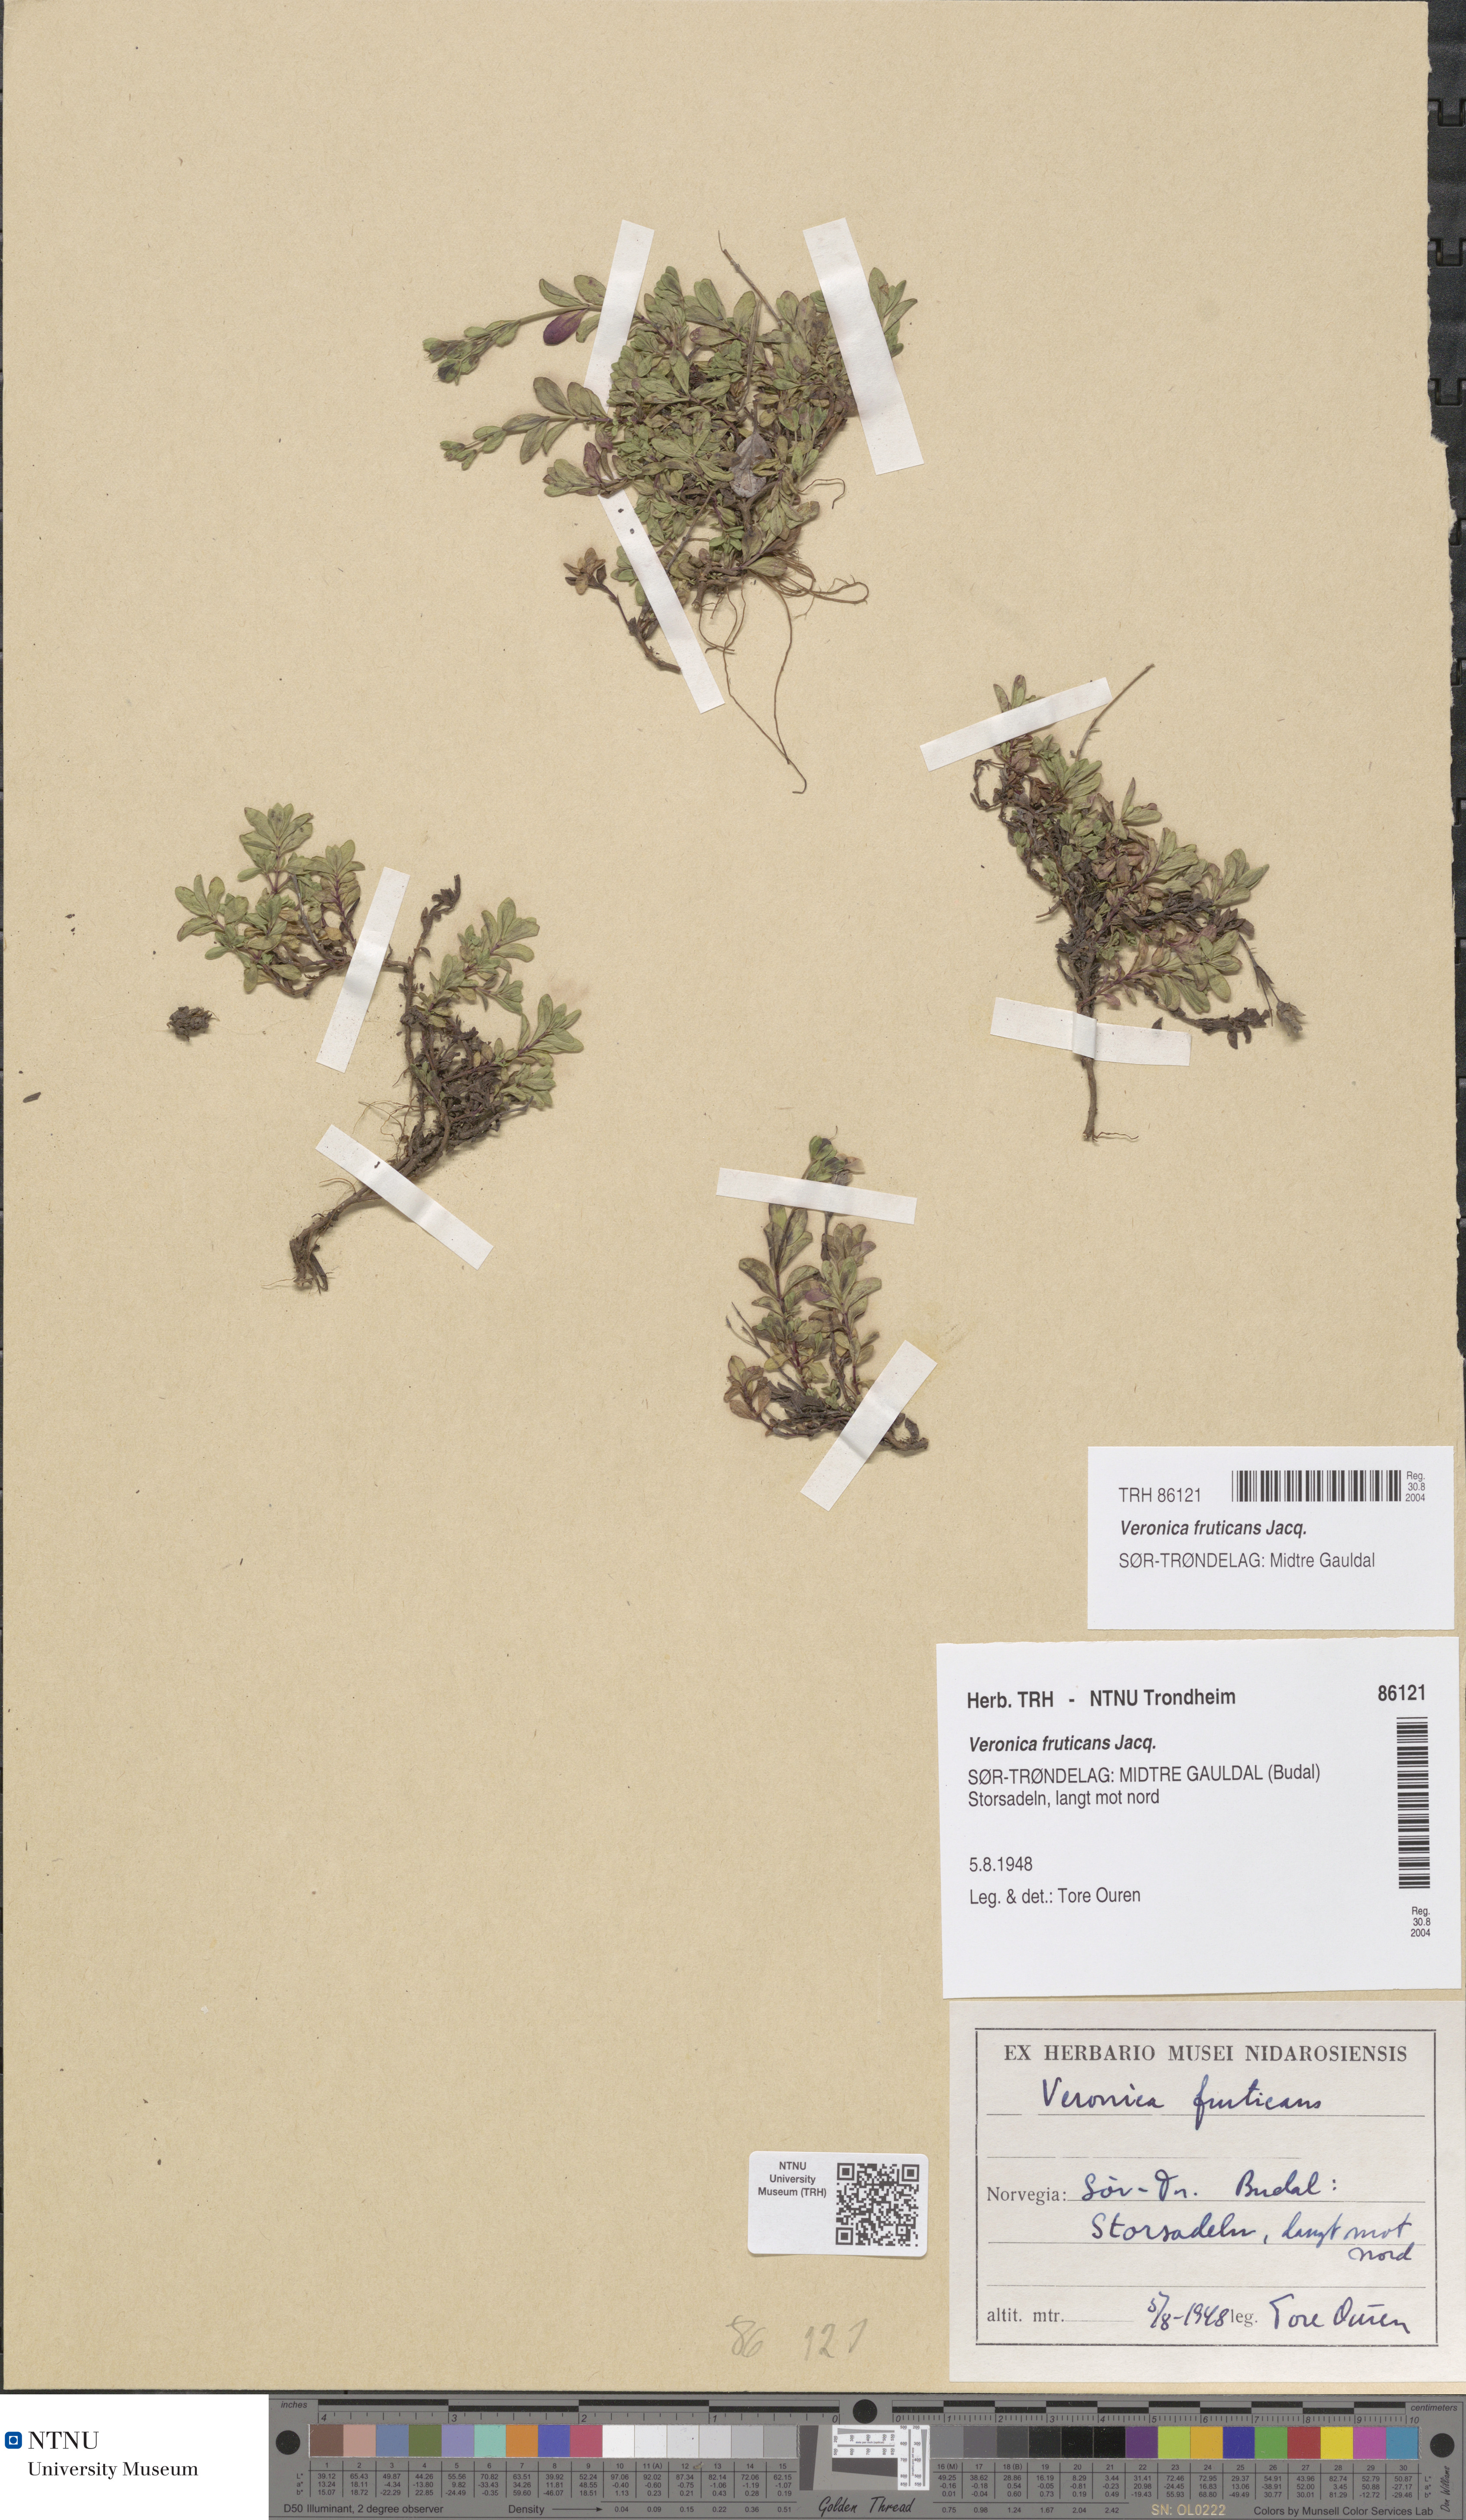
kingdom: Plantae
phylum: Tracheophyta
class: Magnoliopsida
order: Lamiales
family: Plantaginaceae
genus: Veronica
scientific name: Veronica fruticans
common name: Rock speedwell
